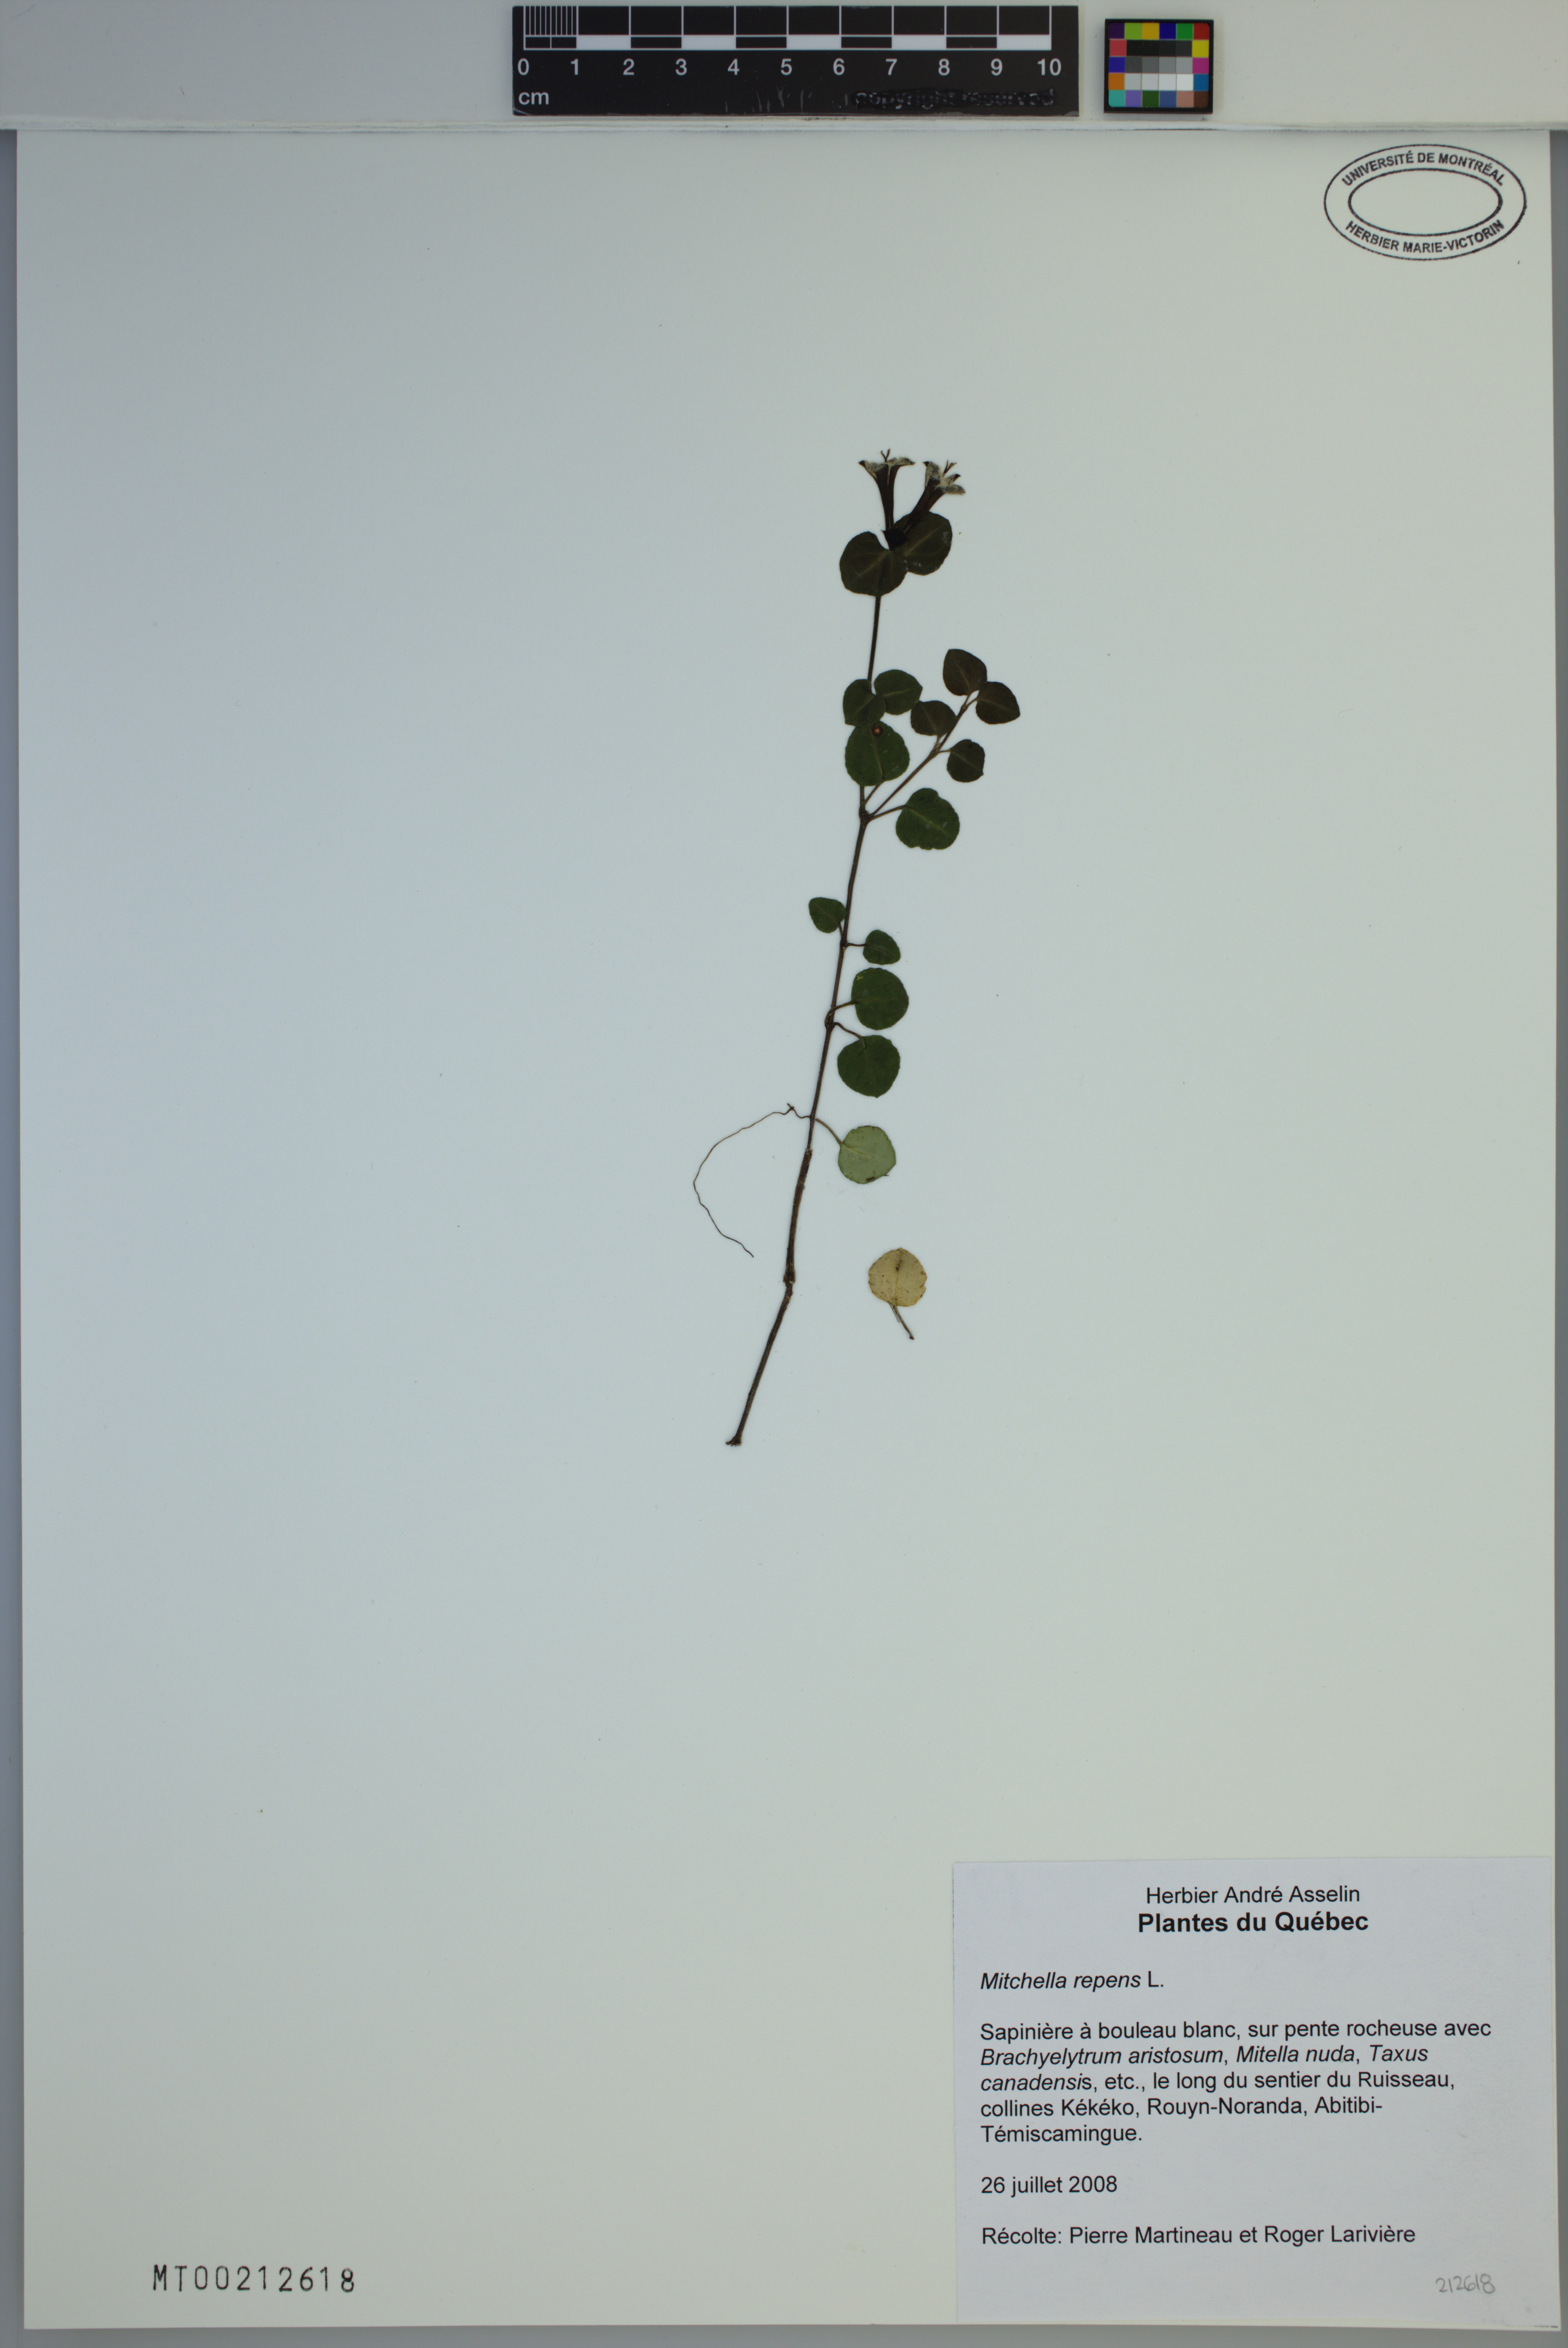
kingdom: Plantae
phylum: Tracheophyta
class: Magnoliopsida
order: Gentianales
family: Rubiaceae
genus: Mitchella
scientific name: Mitchella repens
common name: Partridge-berry
